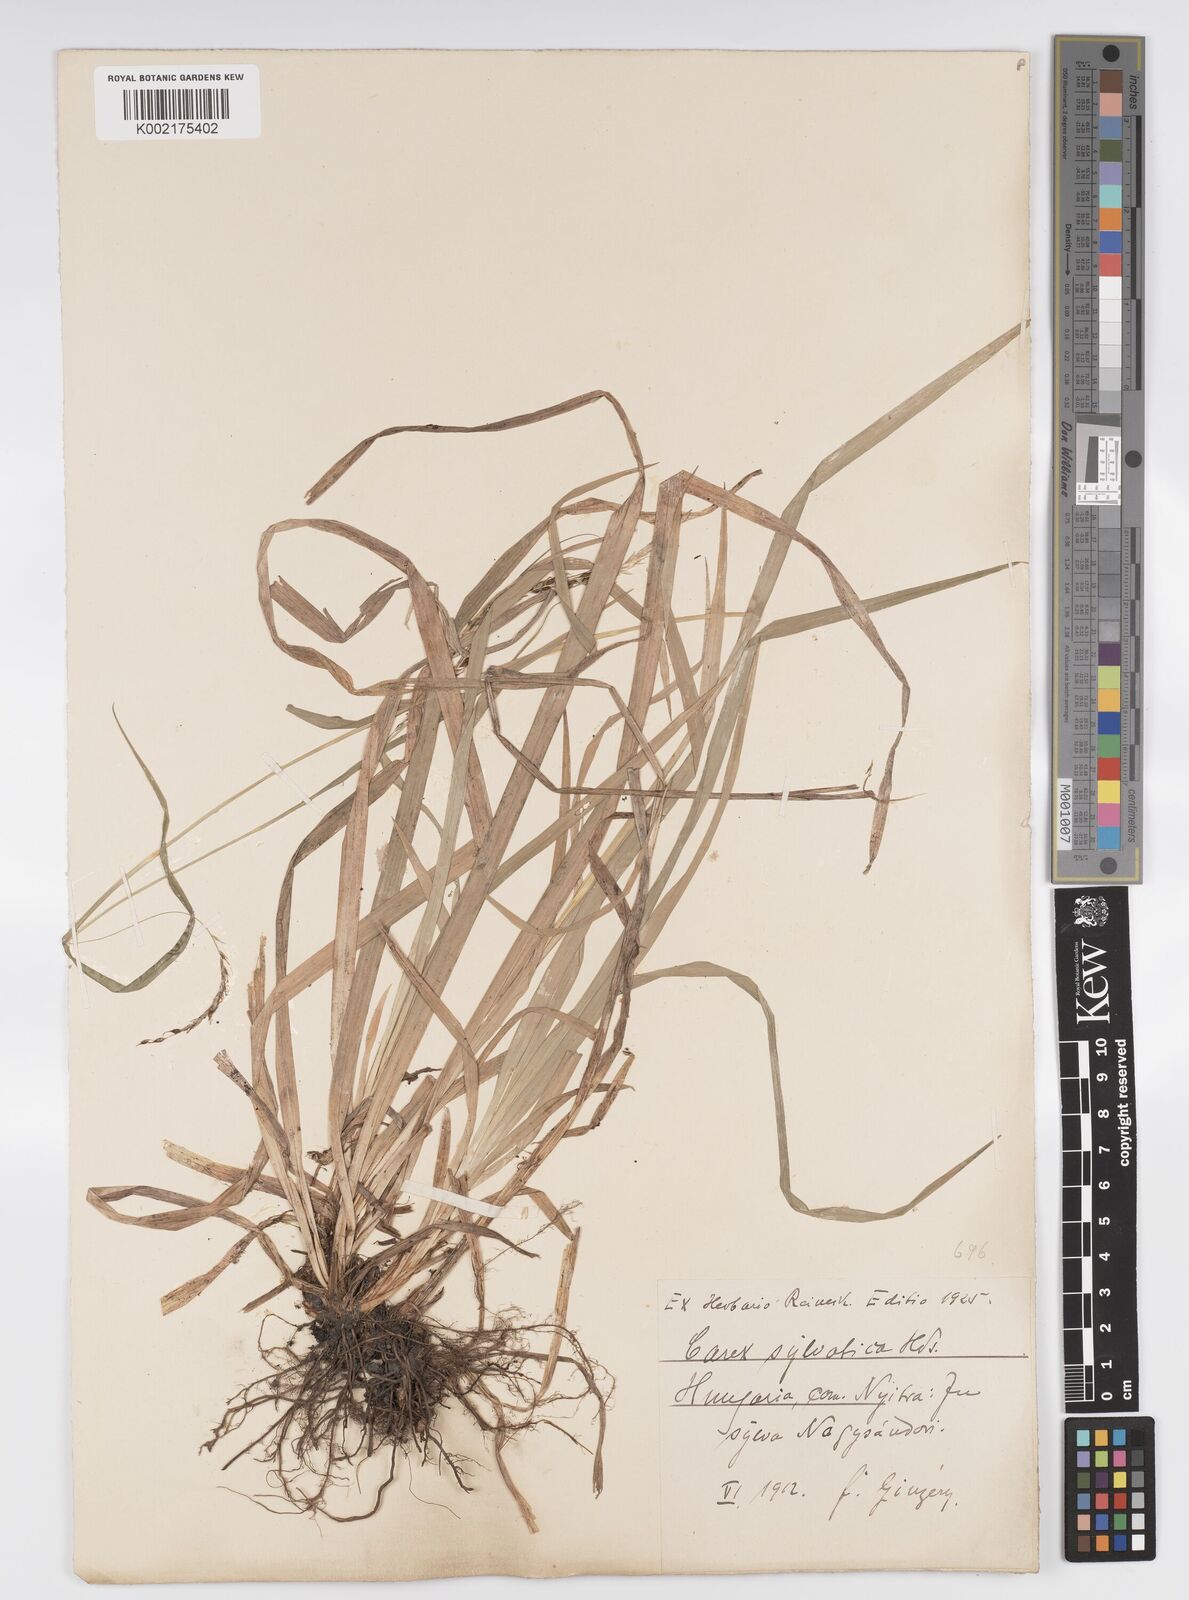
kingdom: Plantae
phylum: Tracheophyta
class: Liliopsida
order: Poales
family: Cyperaceae
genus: Carex
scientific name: Carex sylvatica
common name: Wood-sedge
